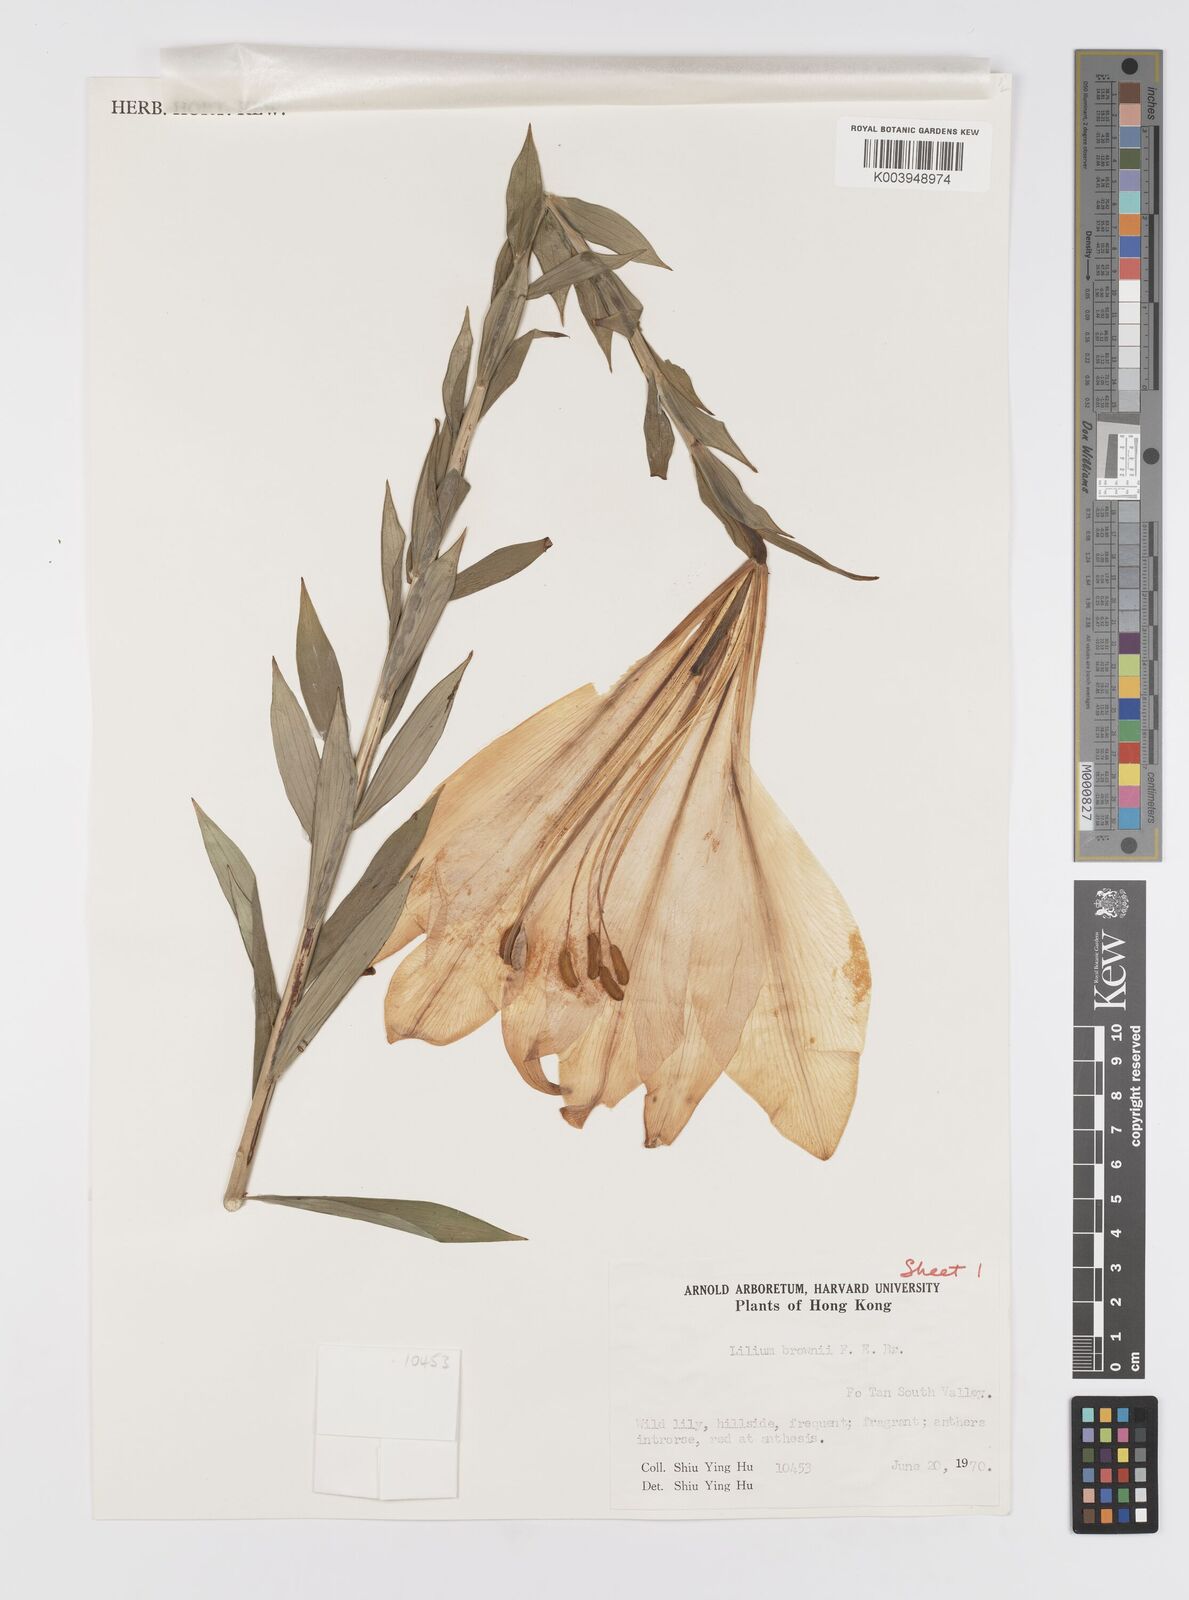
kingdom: Plantae
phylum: Tracheophyta
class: Liliopsida
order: Liliales
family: Liliaceae
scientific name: Liliaceae
